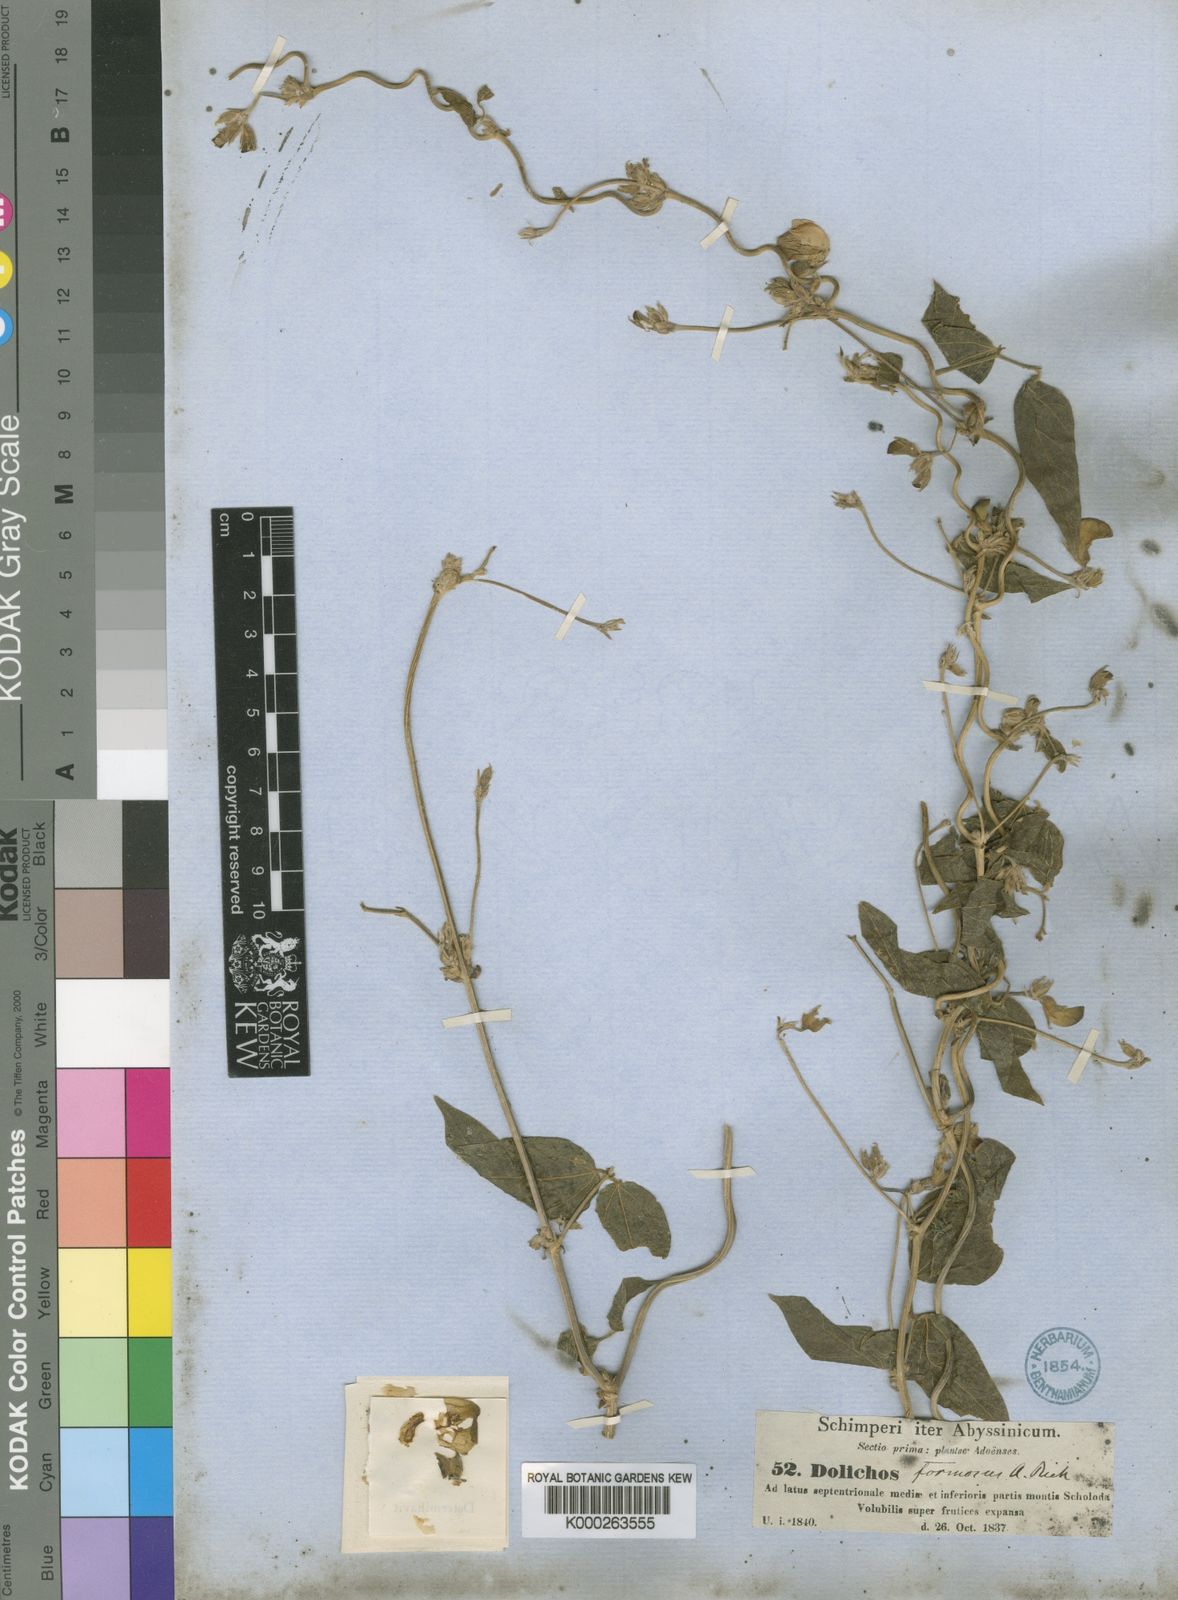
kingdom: Plantae
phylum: Tracheophyta
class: Magnoliopsida
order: Fabales
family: Fabaceae
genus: Dolichos
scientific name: Dolichos sericeus
